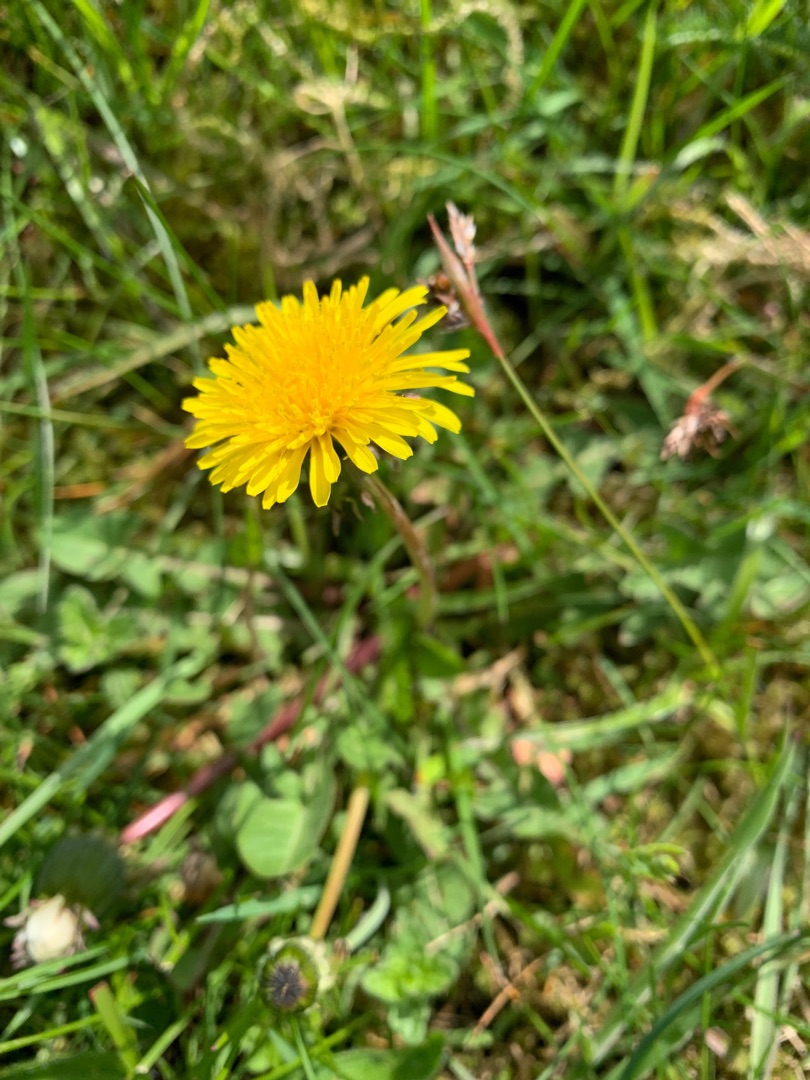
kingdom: Plantae
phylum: Tracheophyta
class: Magnoliopsida
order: Asterales
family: Asteraceae
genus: Taraxacum
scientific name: Taraxacum
